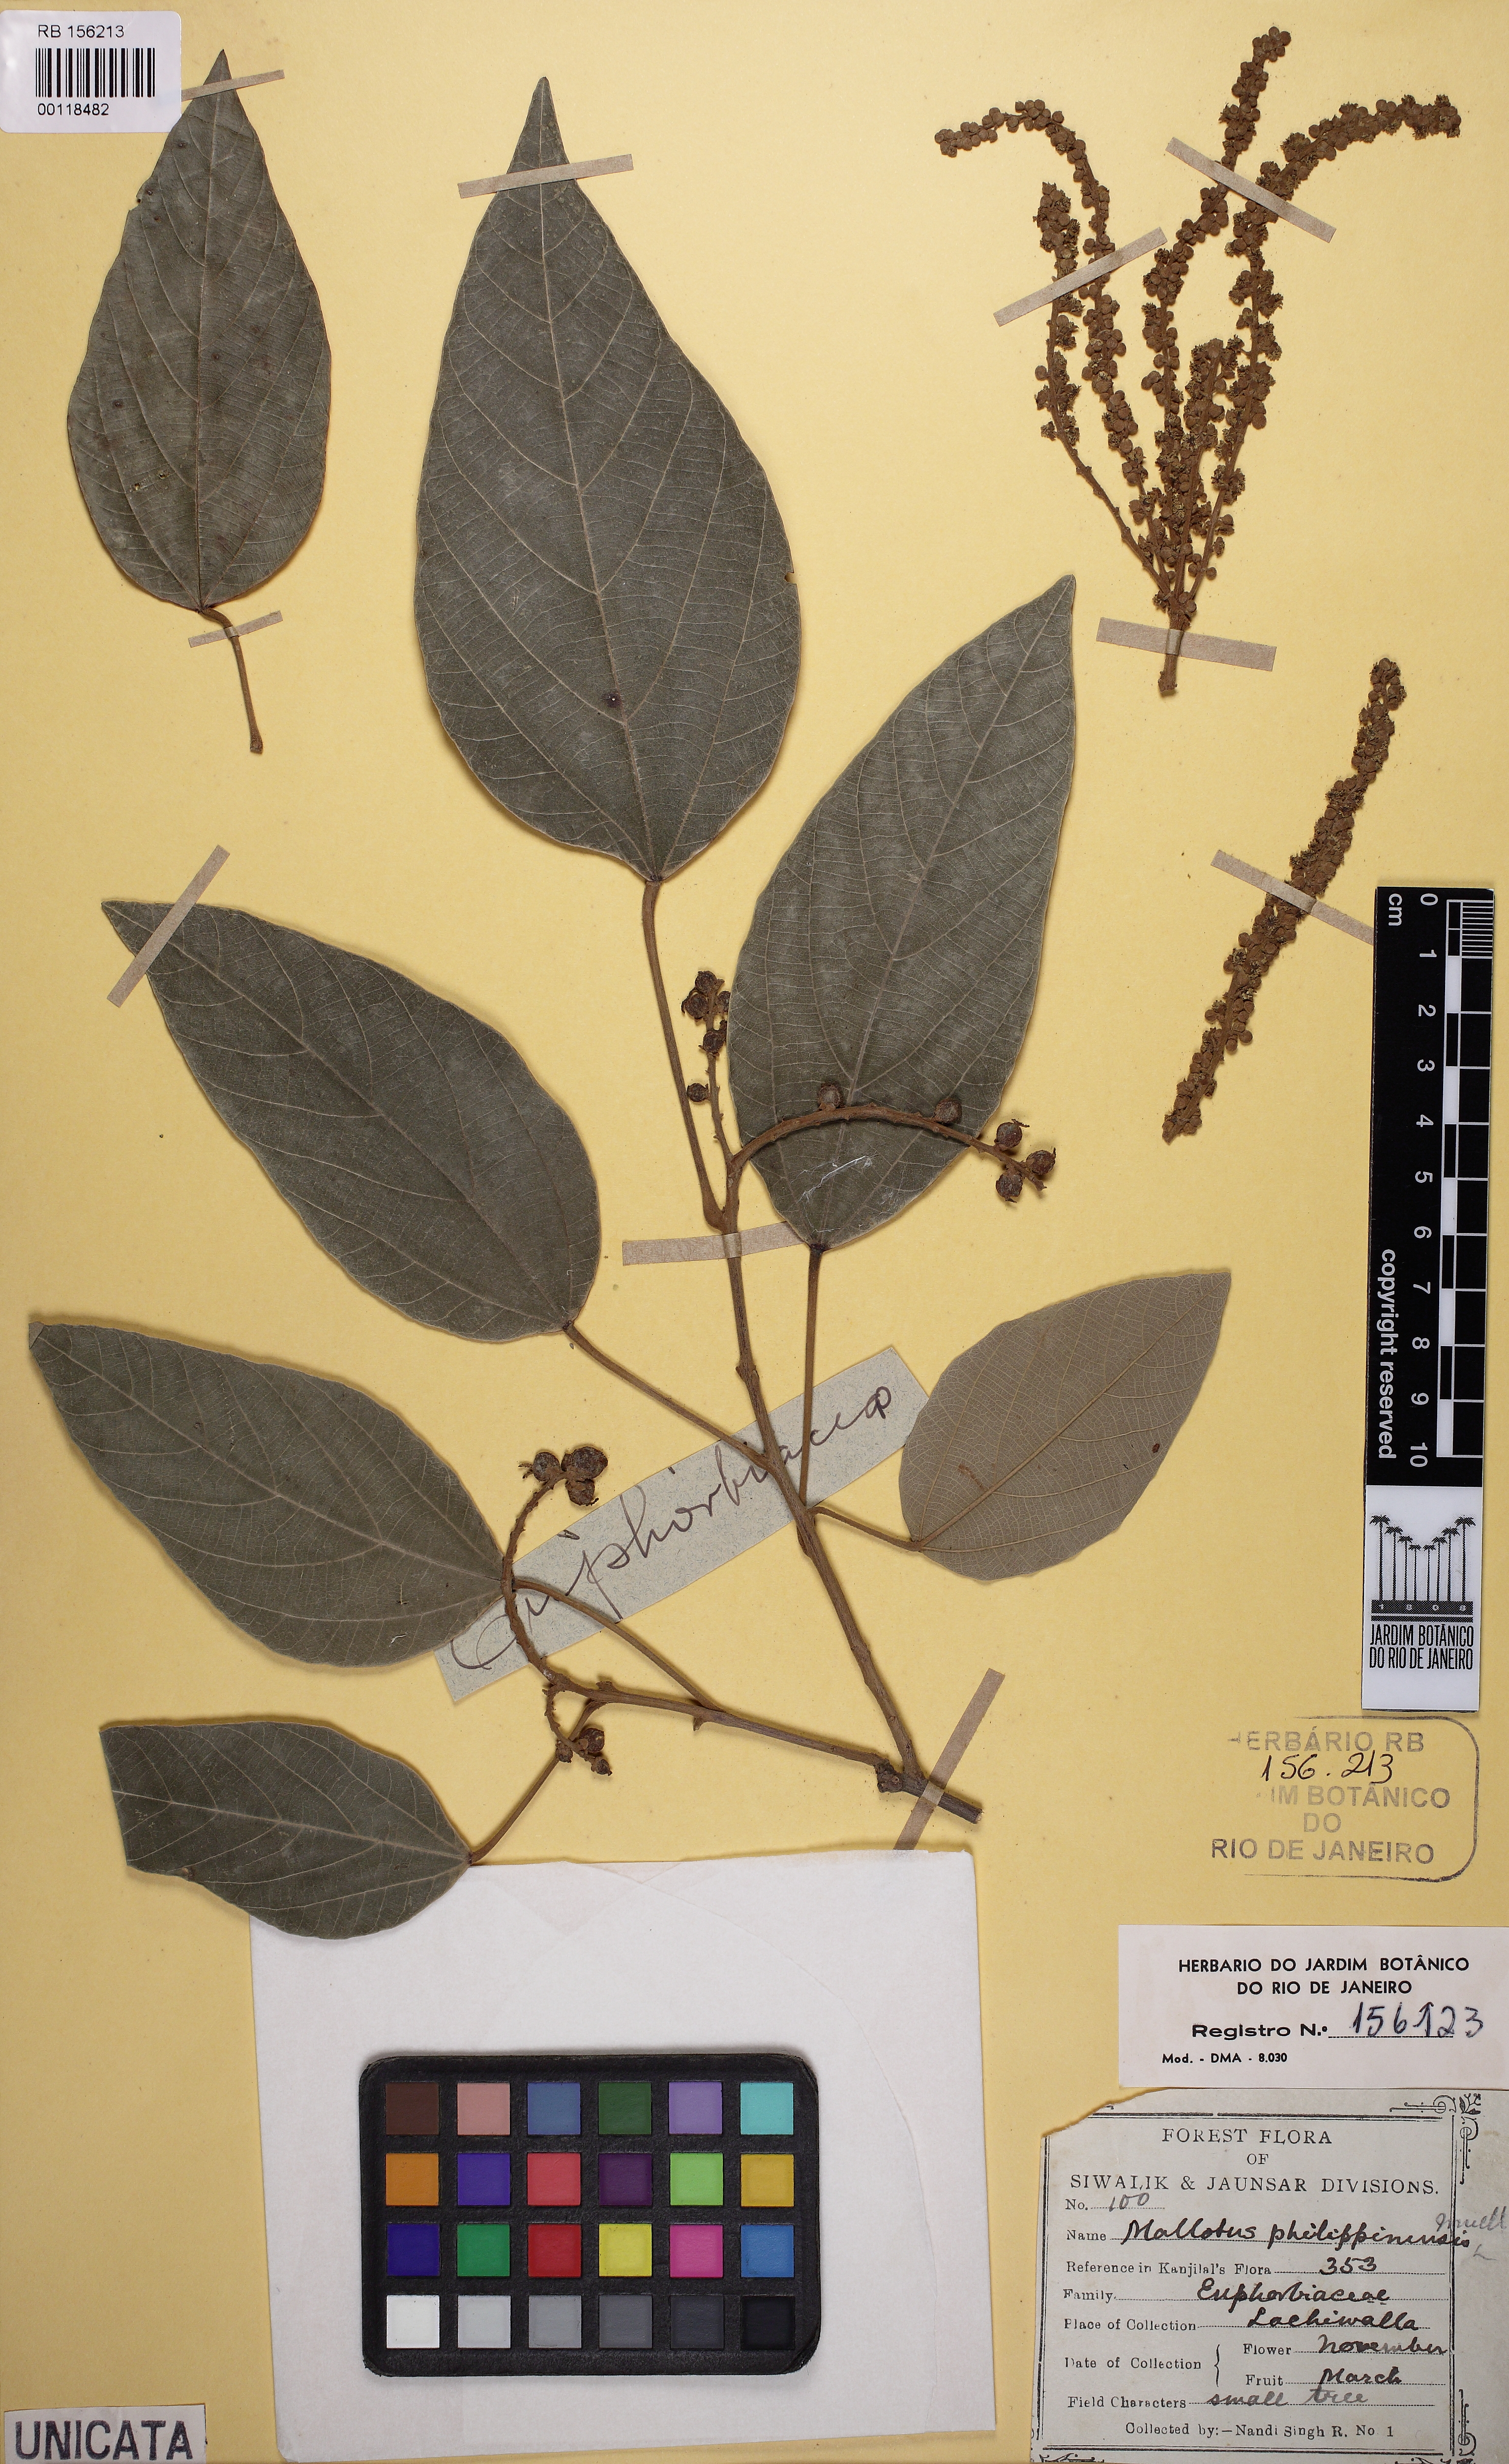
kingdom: Plantae
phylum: Tracheophyta
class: Magnoliopsida
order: Malpighiales
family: Euphorbiaceae
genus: Mallotus
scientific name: Mallotus philippensis
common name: Kamala tree
